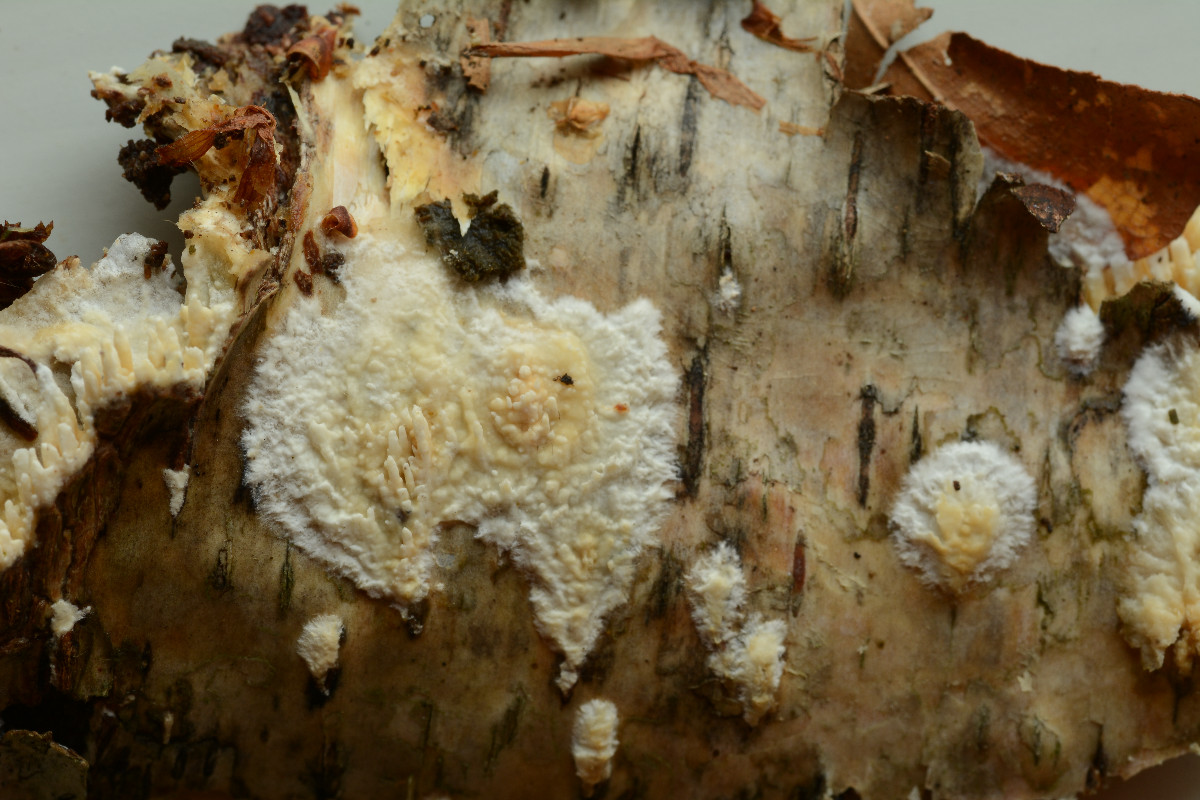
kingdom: Fungi
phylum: Basidiomycota
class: Agaricomycetes
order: Hymenochaetales
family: Schizoporaceae
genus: Xylodon
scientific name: Xylodon radula
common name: grovtandet kalkskind
